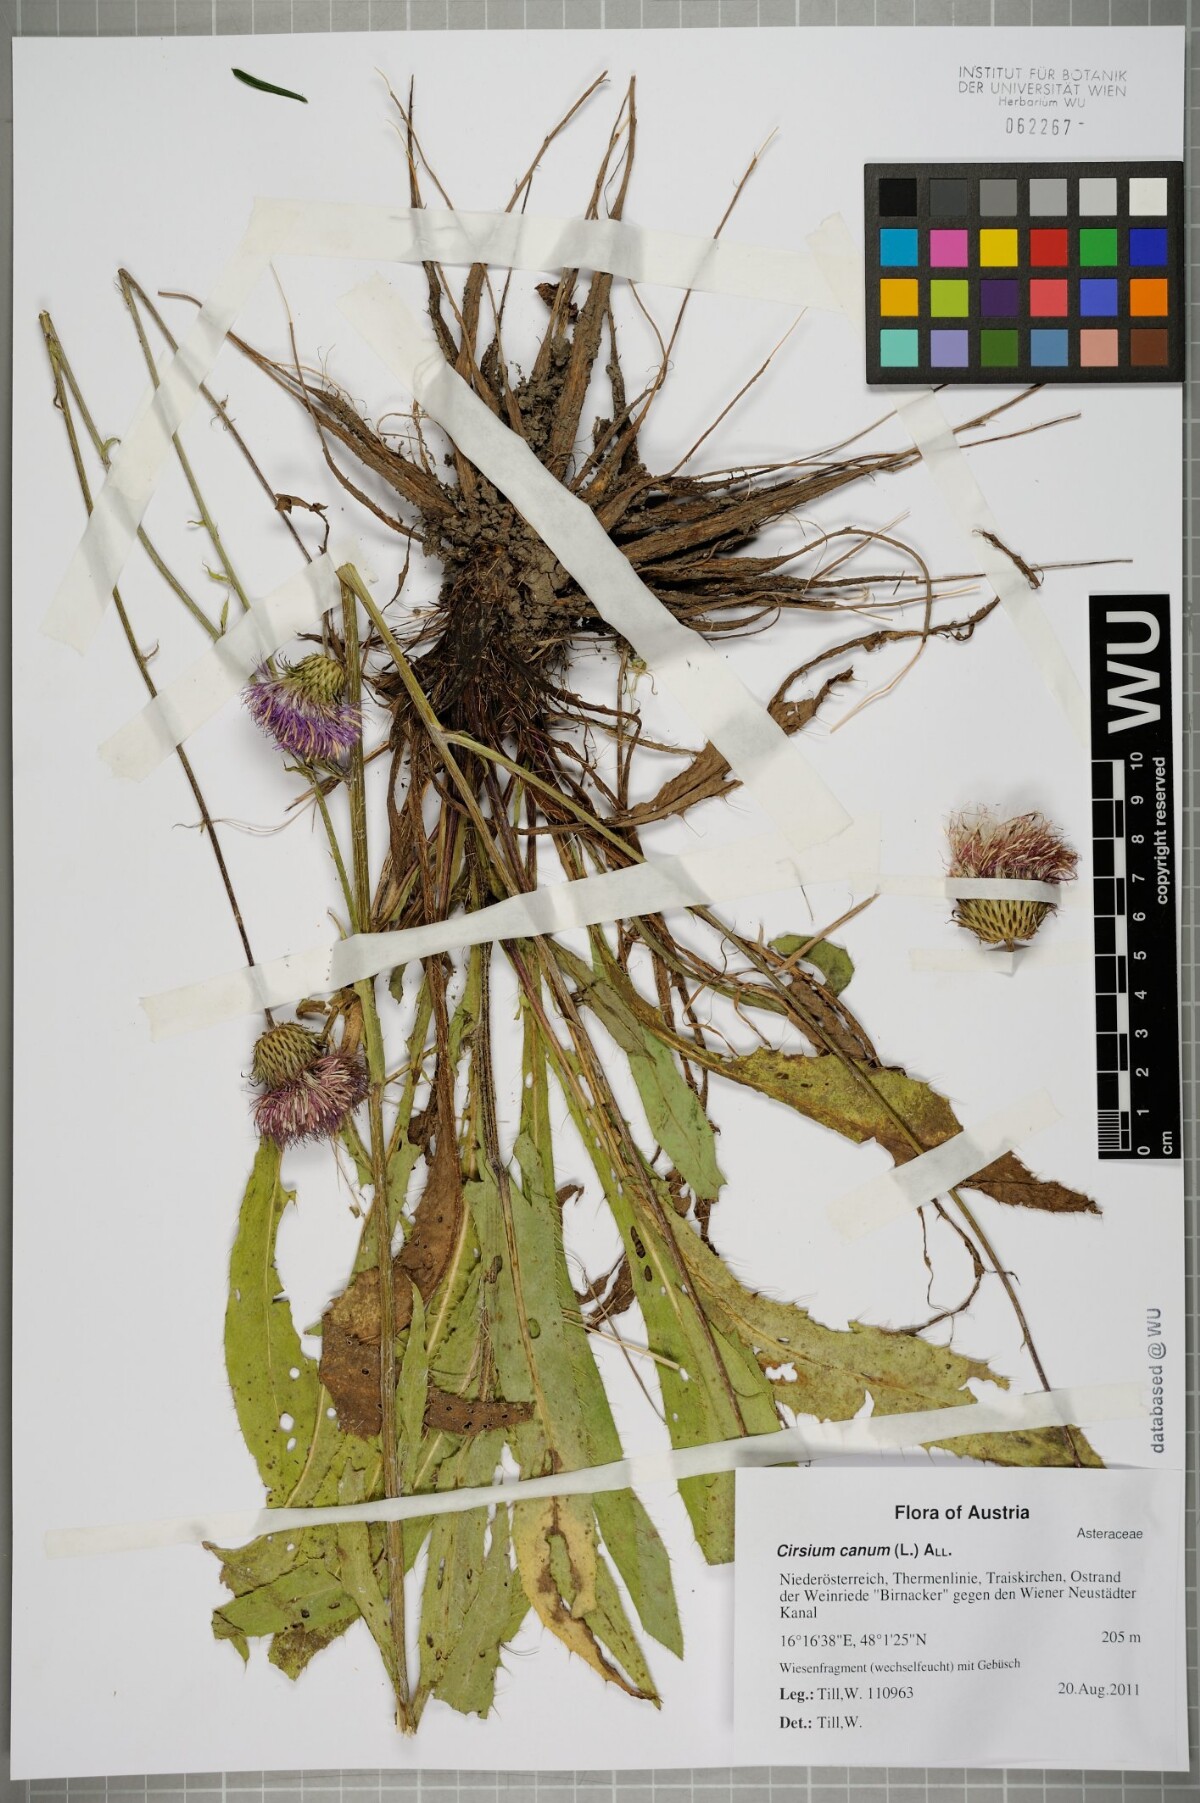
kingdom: Plantae
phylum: Tracheophyta
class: Magnoliopsida
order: Asterales
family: Asteraceae
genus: Cirsium
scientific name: Cirsium canum
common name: Queen anne's thistle
